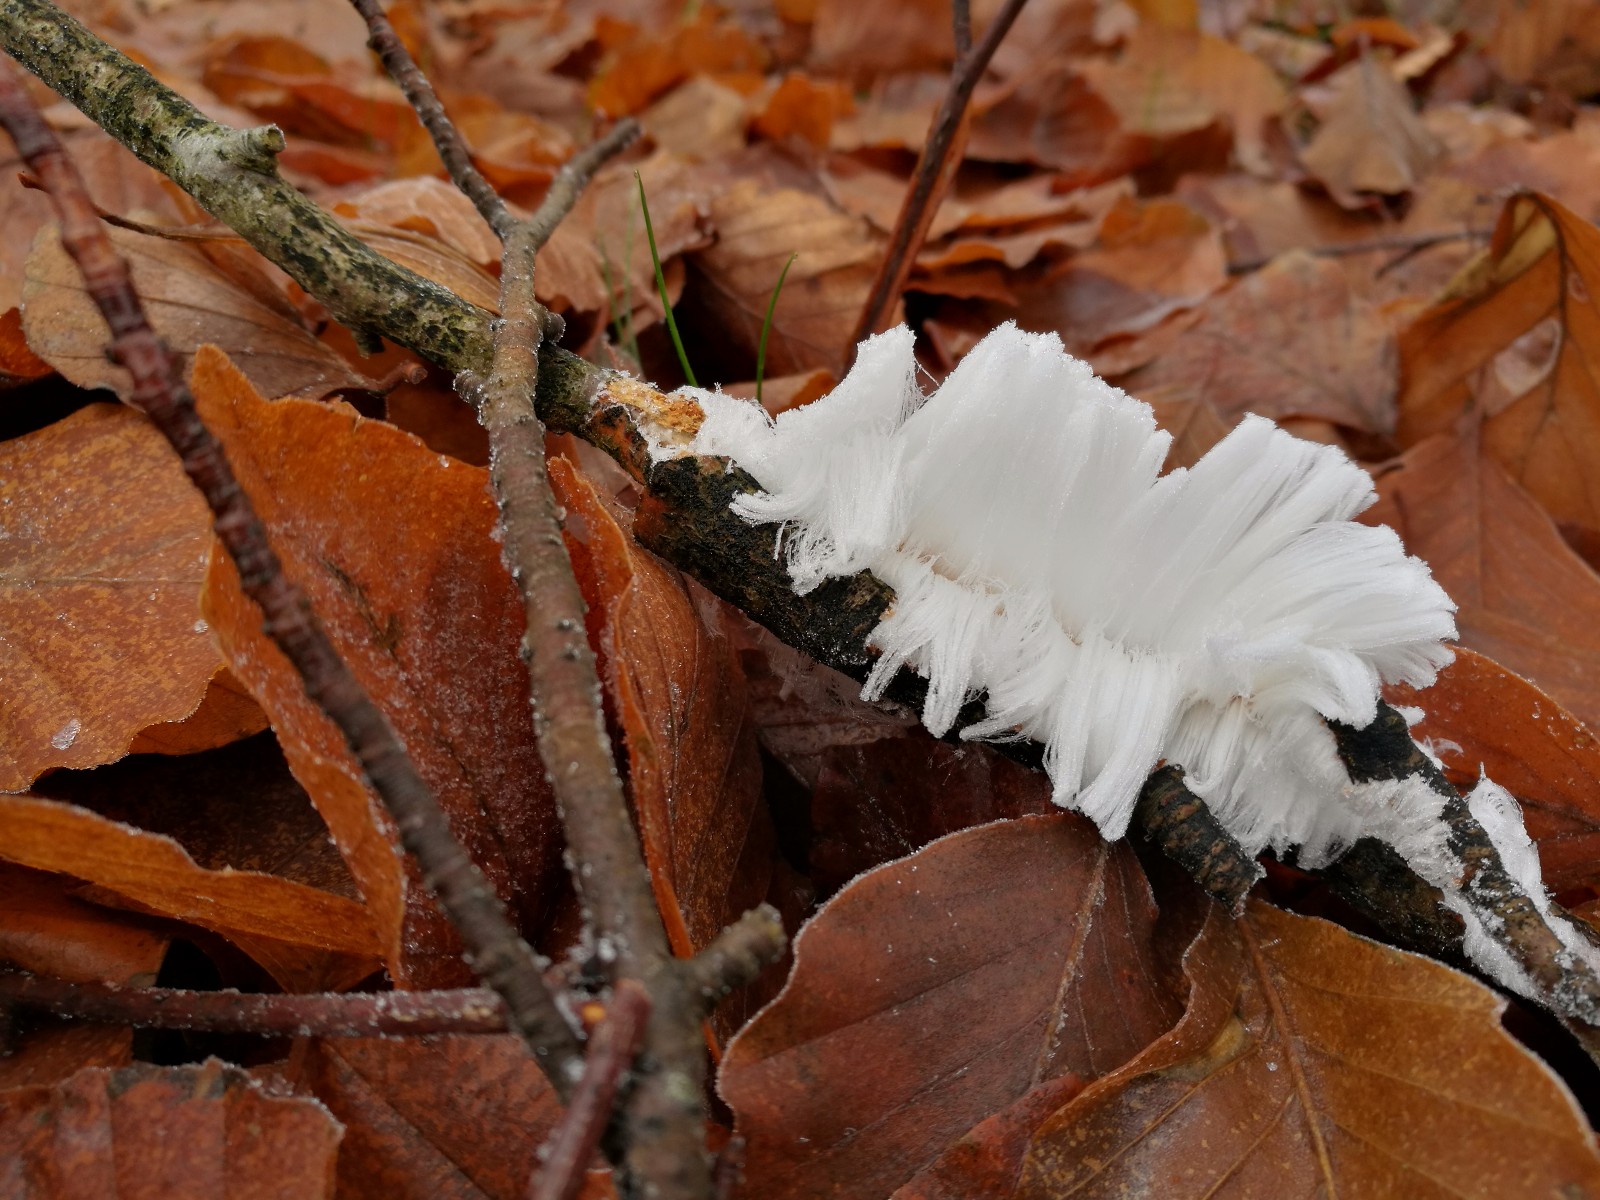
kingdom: Fungi
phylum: Basidiomycota
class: Tremellomycetes
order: Tremellales
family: Exidiaceae
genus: Exidiopsis
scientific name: Exidiopsis effusa
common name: smuk bævrehinde
